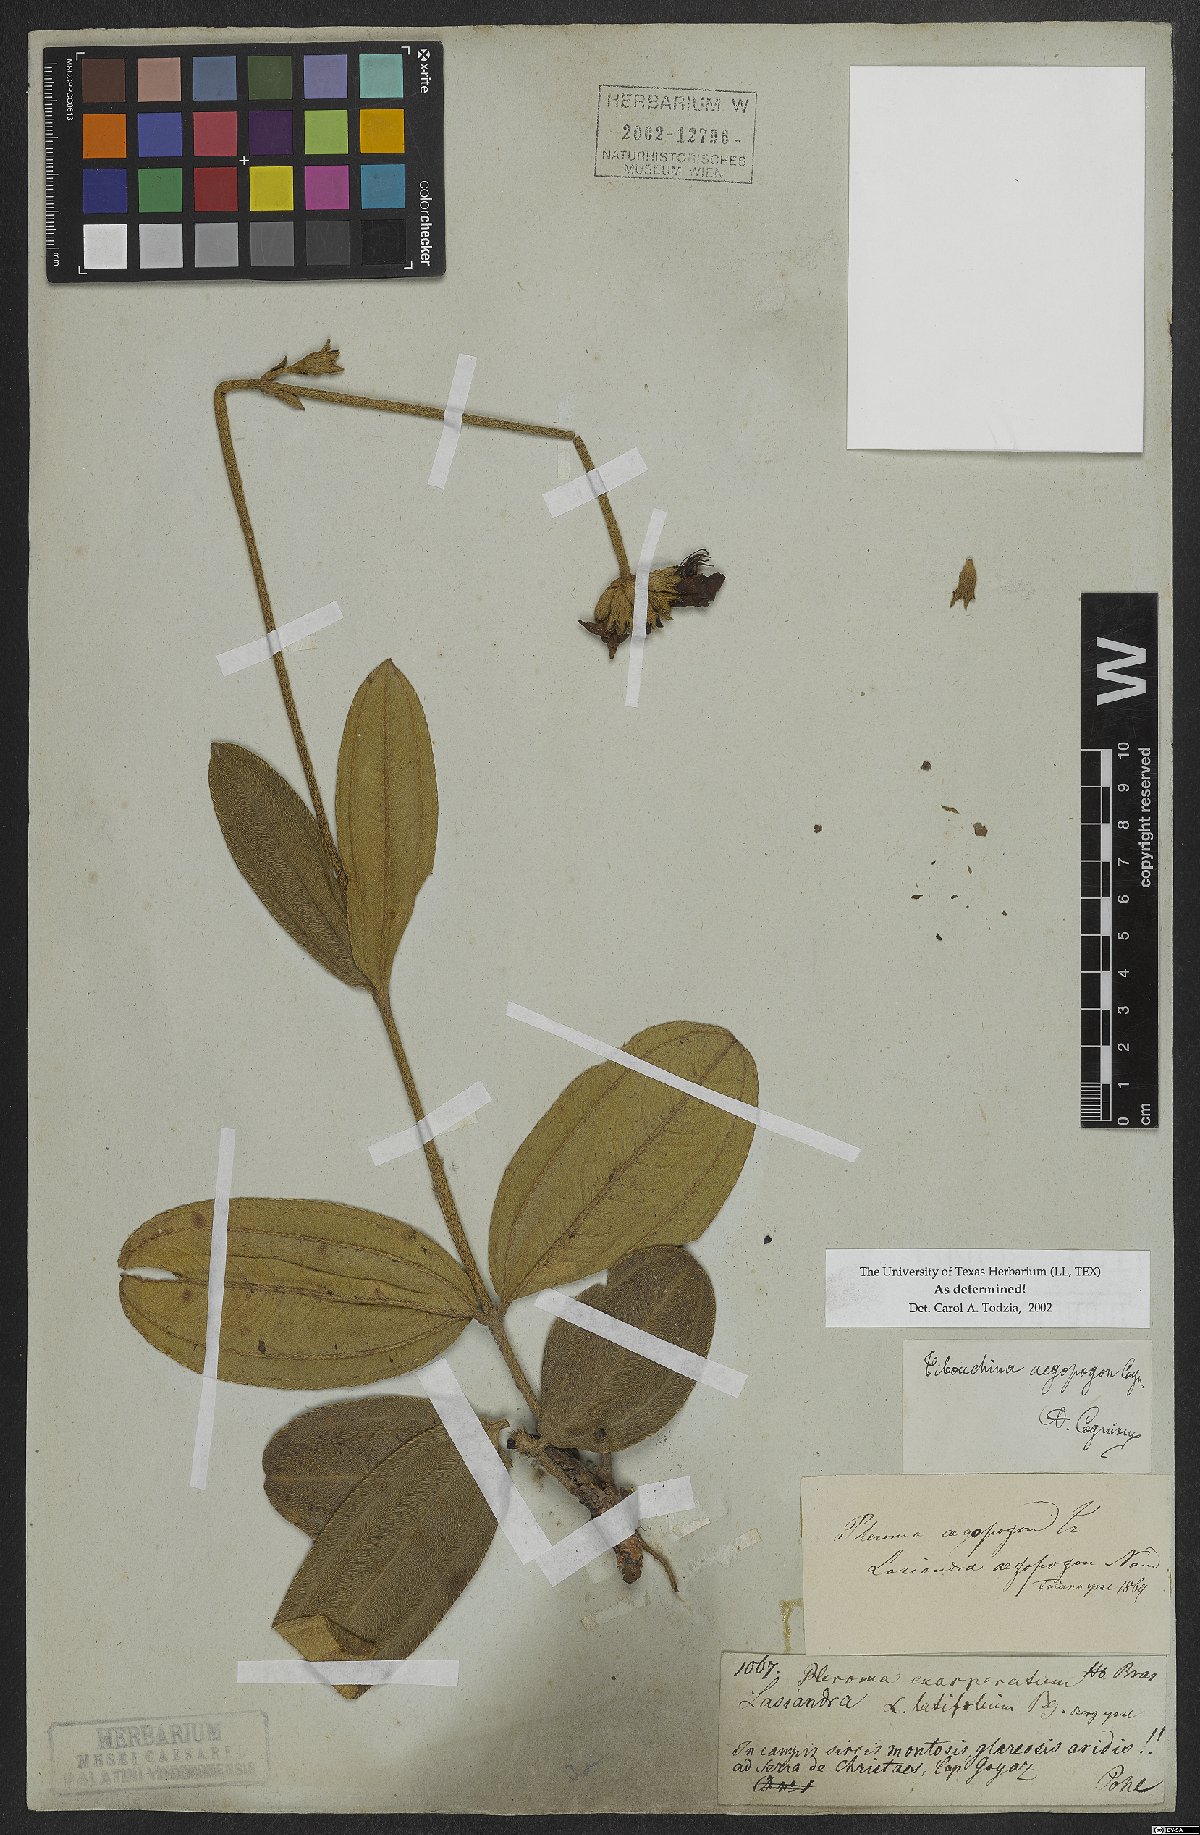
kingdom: Plantae
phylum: Tracheophyta
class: Magnoliopsida
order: Myrtales
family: Melastomataceae
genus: Pleroma
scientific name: Pleroma aegopogon
